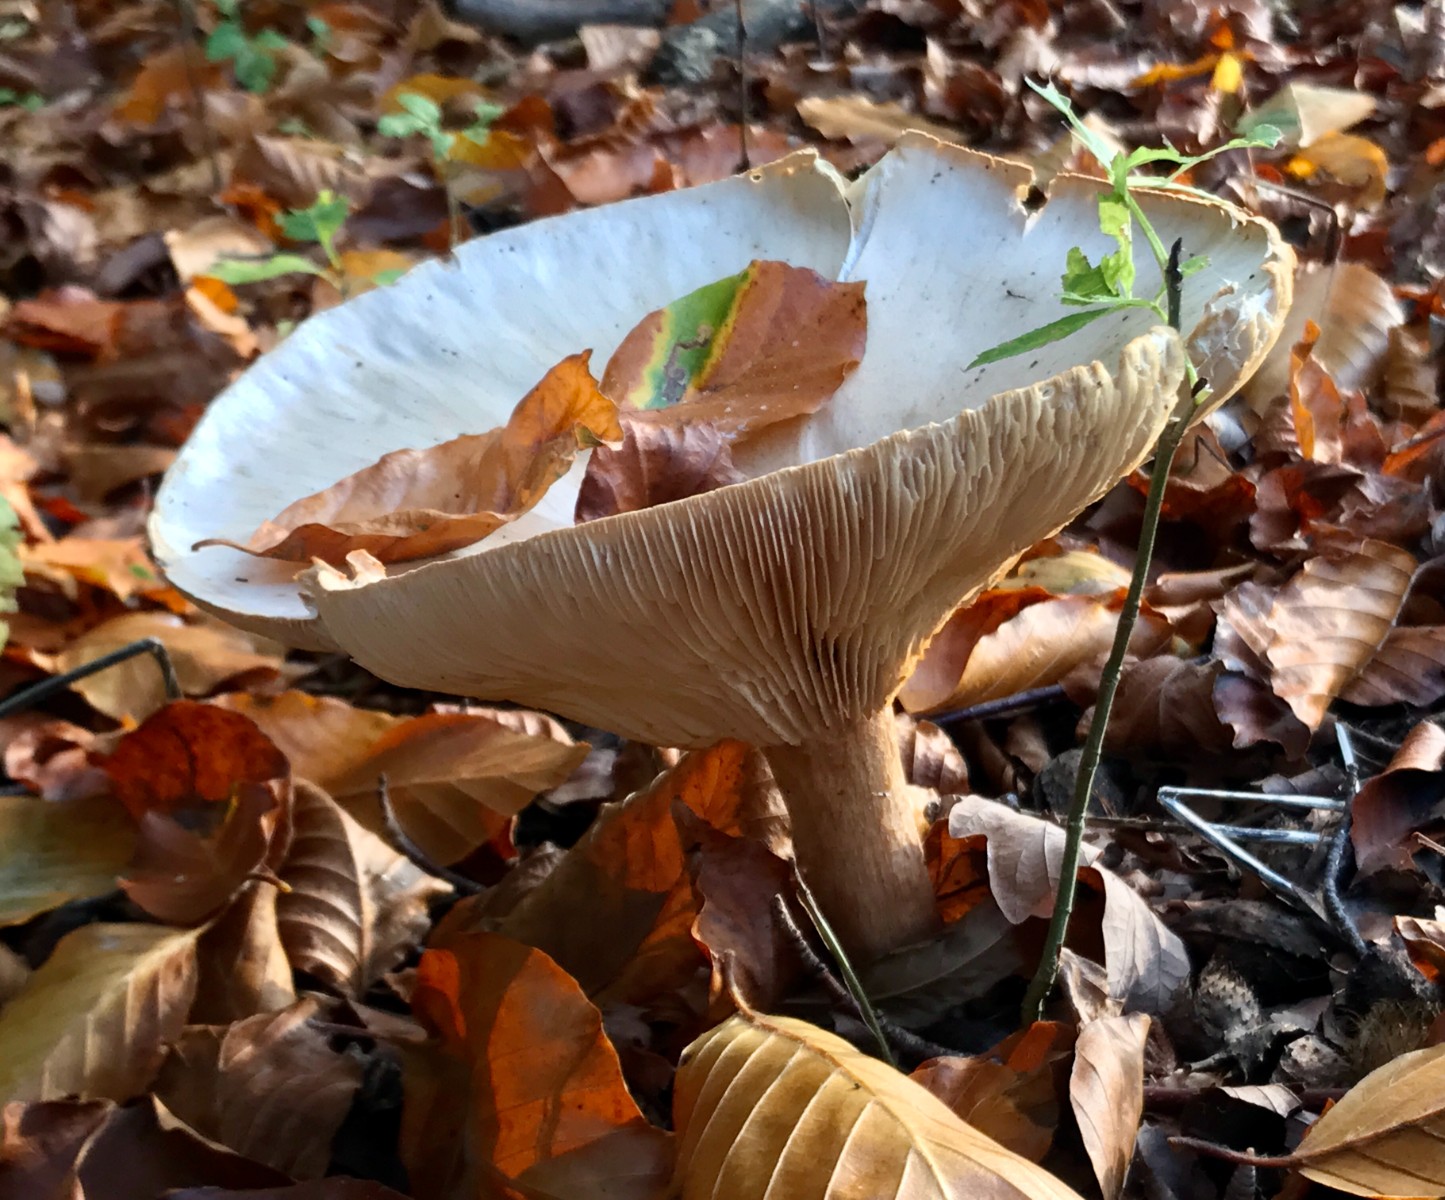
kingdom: Fungi
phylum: Basidiomycota
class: Agaricomycetes
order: Agaricales
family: Tricholomataceae
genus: Infundibulicybe
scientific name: Infundibulicybe geotropa
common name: stor tragthat
